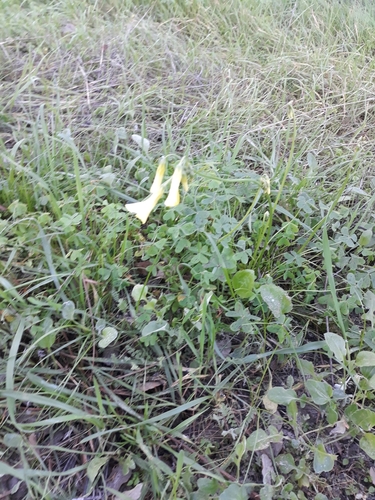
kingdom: Plantae
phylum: Tracheophyta
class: Magnoliopsida
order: Oxalidales
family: Oxalidaceae
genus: Oxalis
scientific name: Oxalis pes-caprae
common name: Bermuda-buttercup
